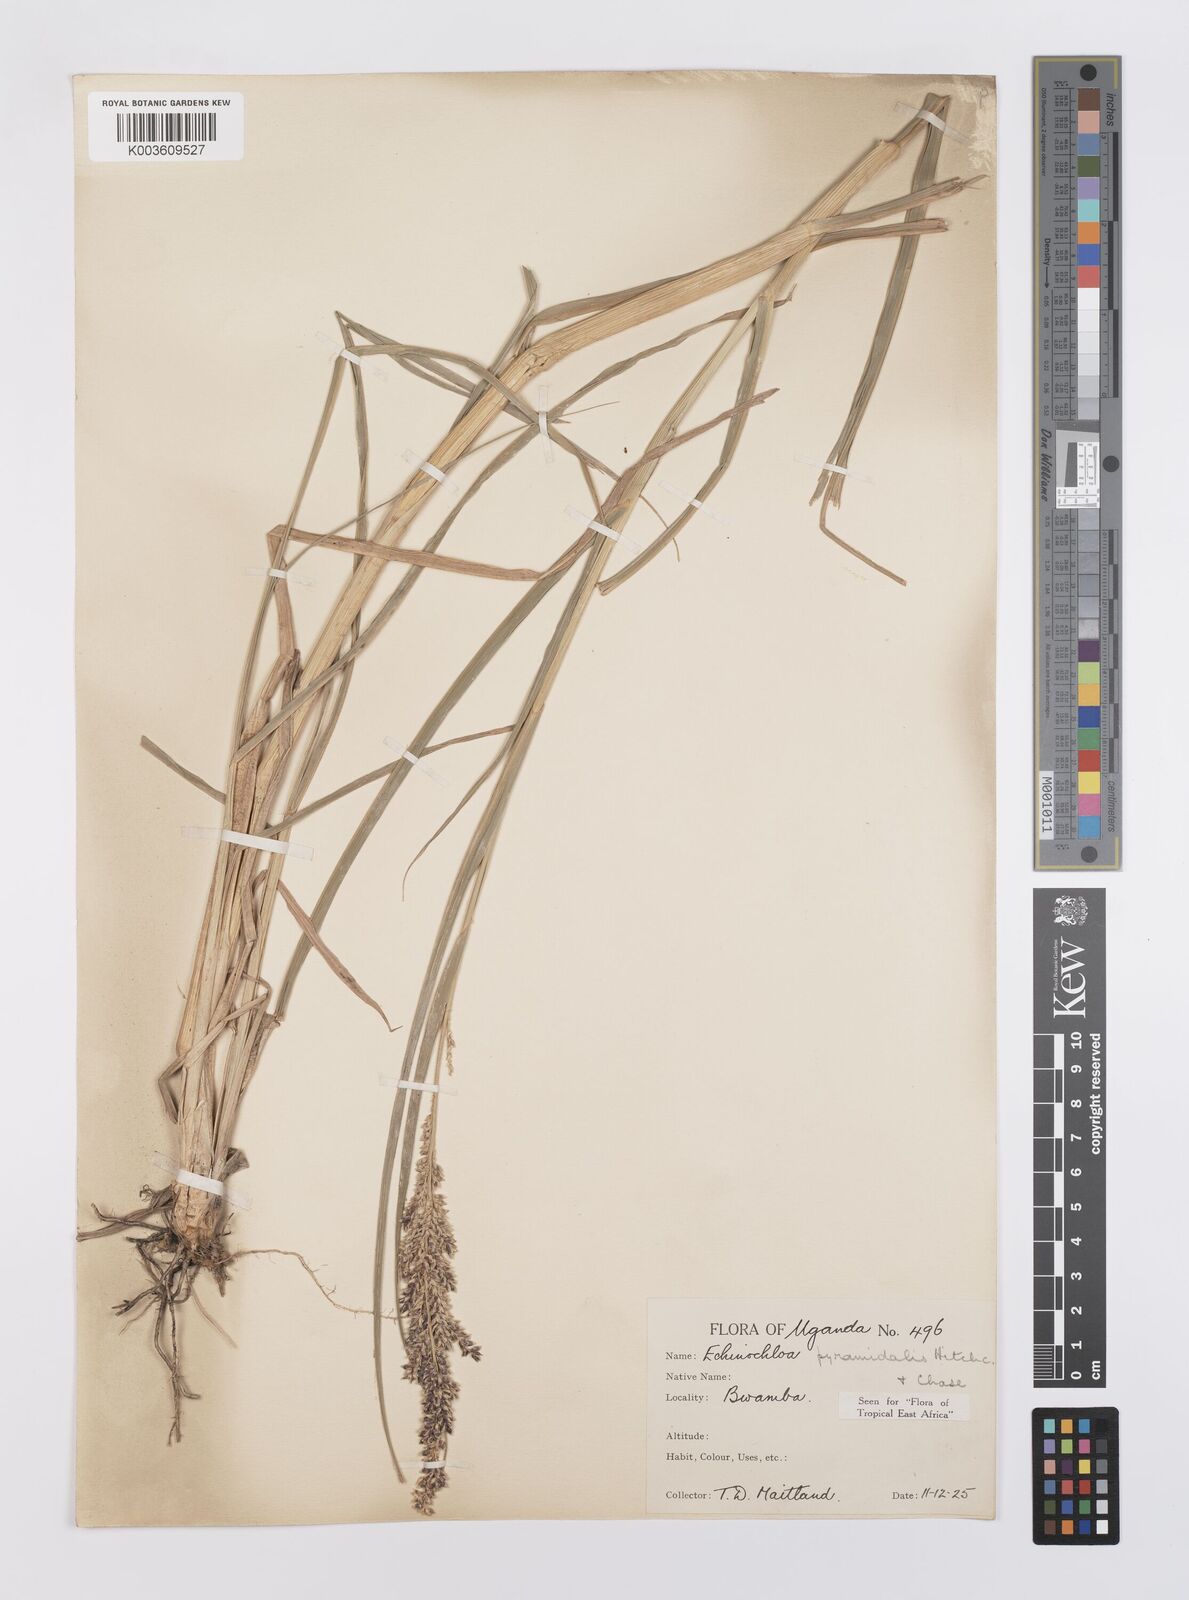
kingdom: Plantae
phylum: Tracheophyta
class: Liliopsida
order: Poales
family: Poaceae
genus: Echinochloa
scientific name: Echinochloa pyramidalis
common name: Antelope grass
